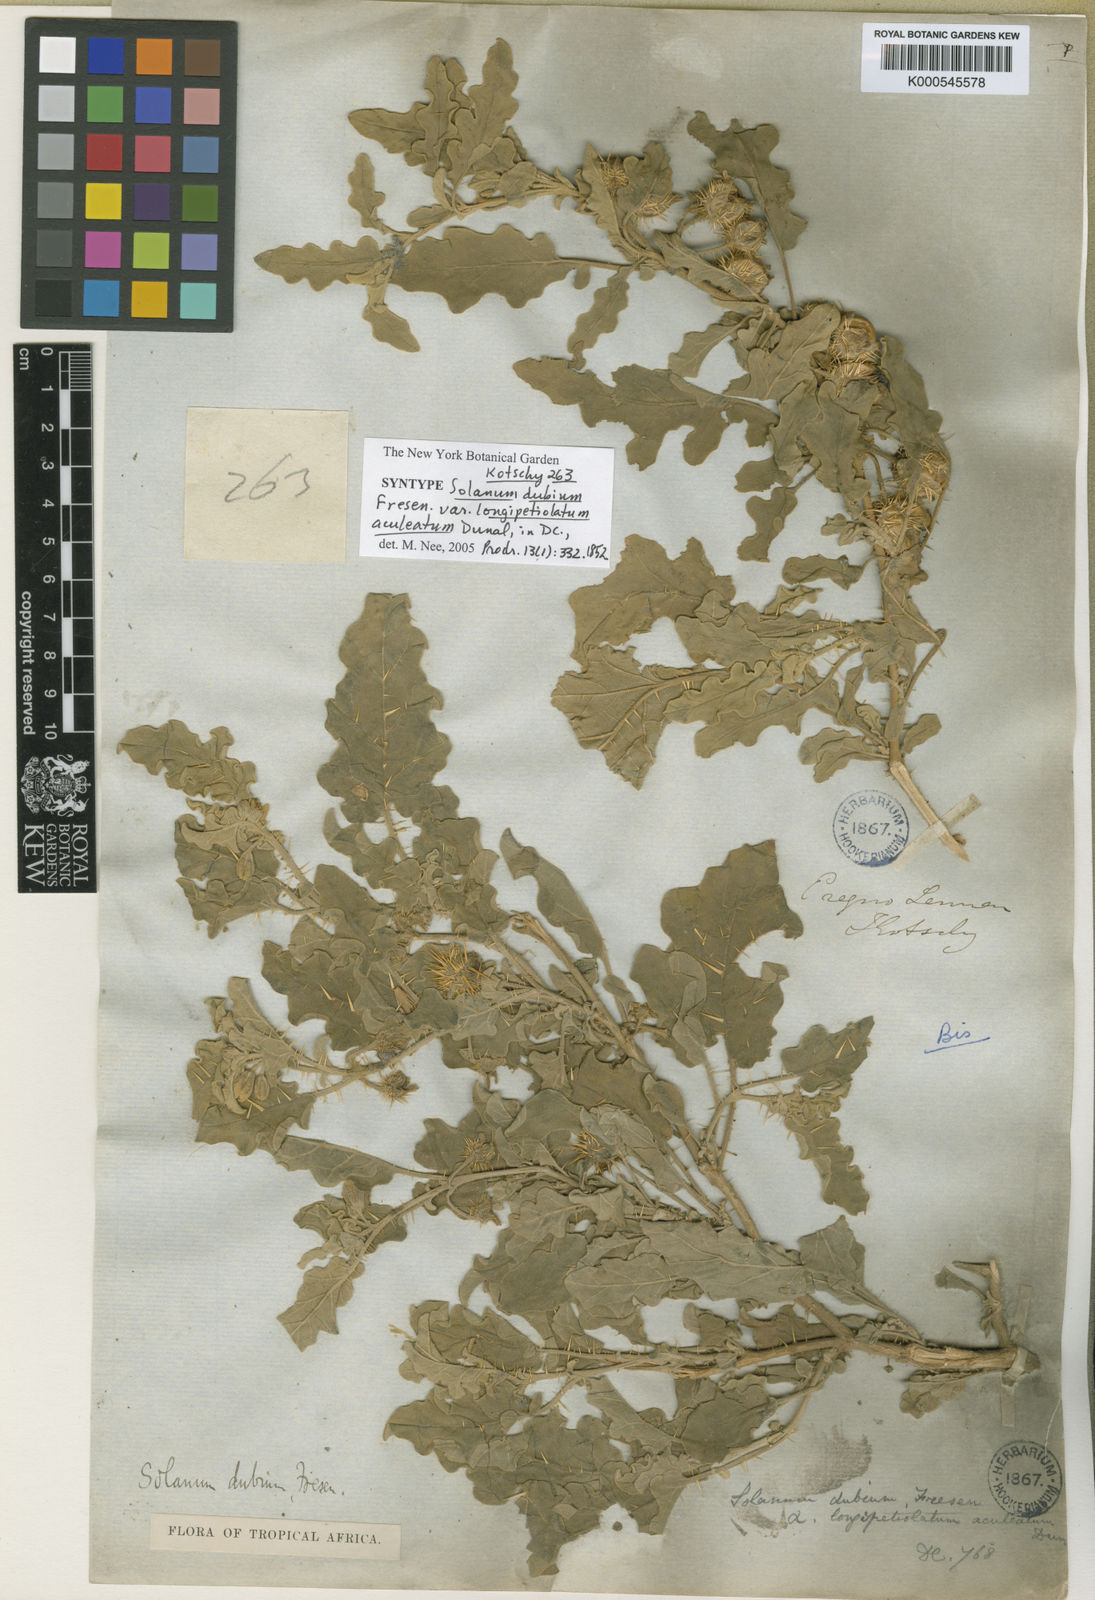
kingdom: Plantae
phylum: Tracheophyta
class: Magnoliopsida
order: Solanales
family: Solanaceae
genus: Solanum
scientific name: Solanum coagulans
